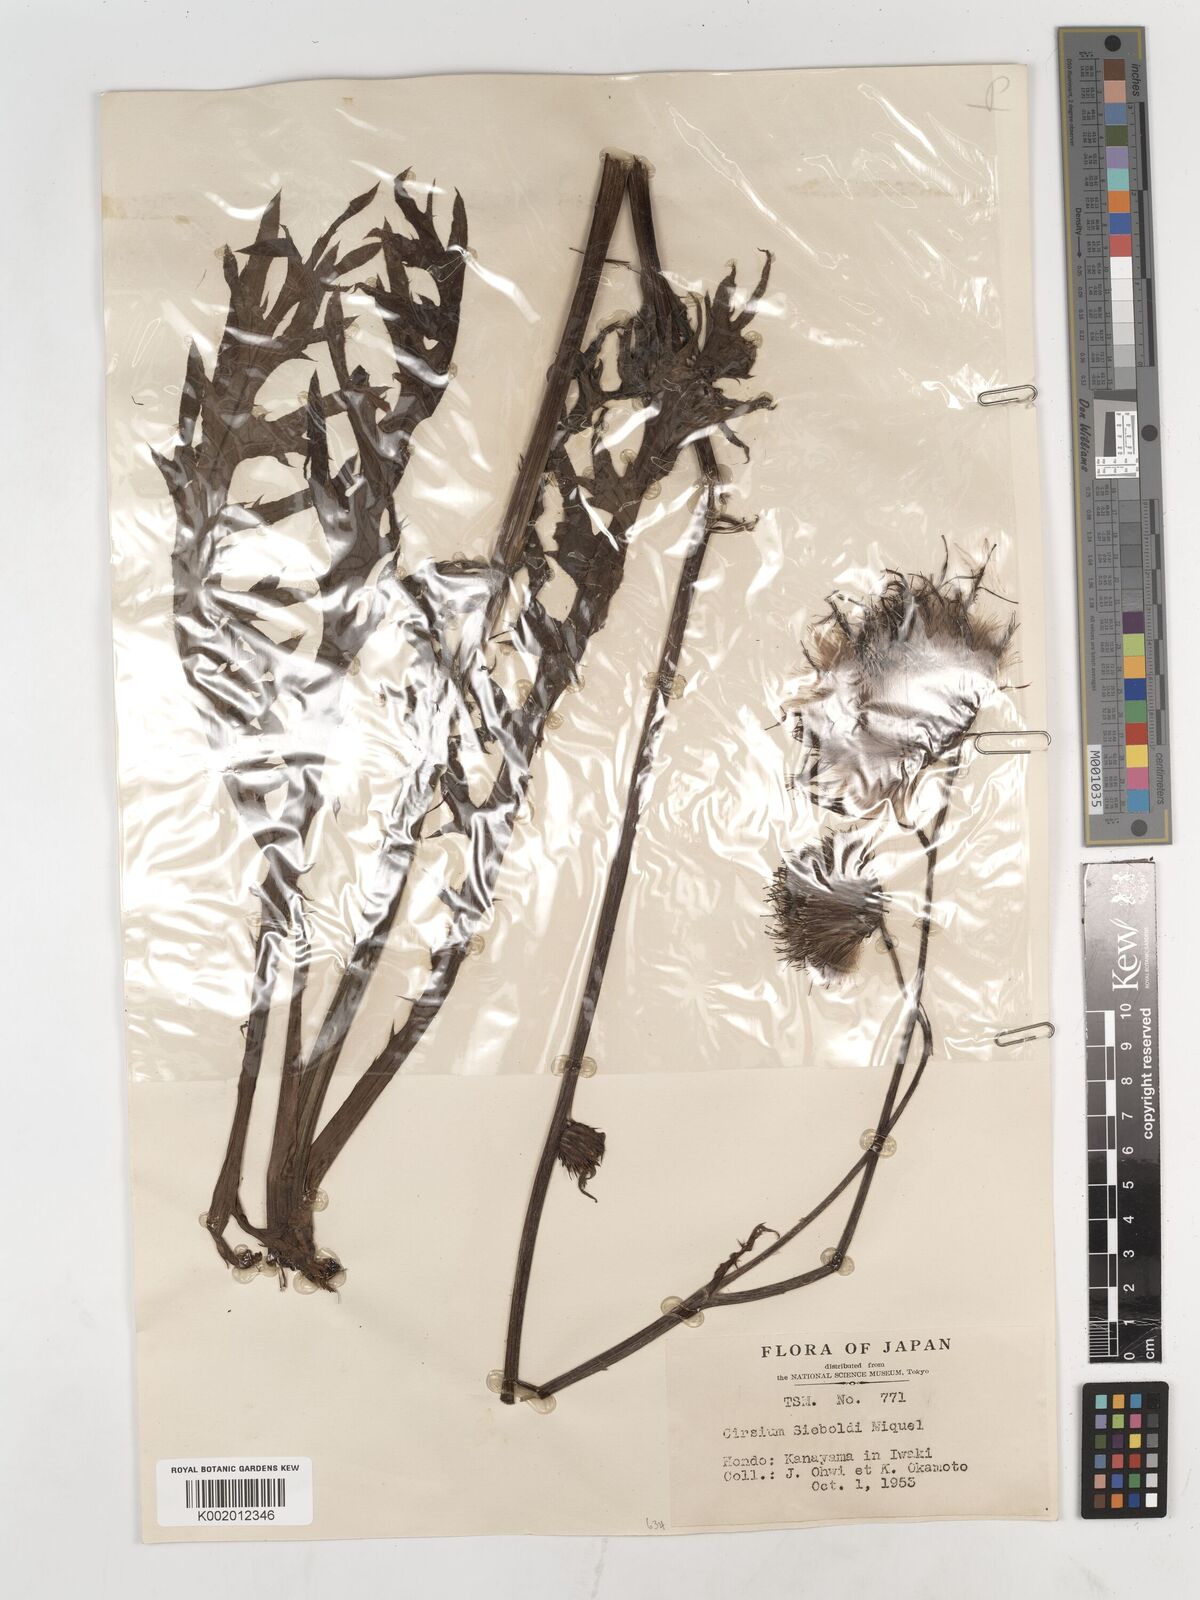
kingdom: Plantae
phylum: Tracheophyta
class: Magnoliopsida
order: Asterales
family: Asteraceae
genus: Cirsium
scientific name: Cirsium sieboldii
